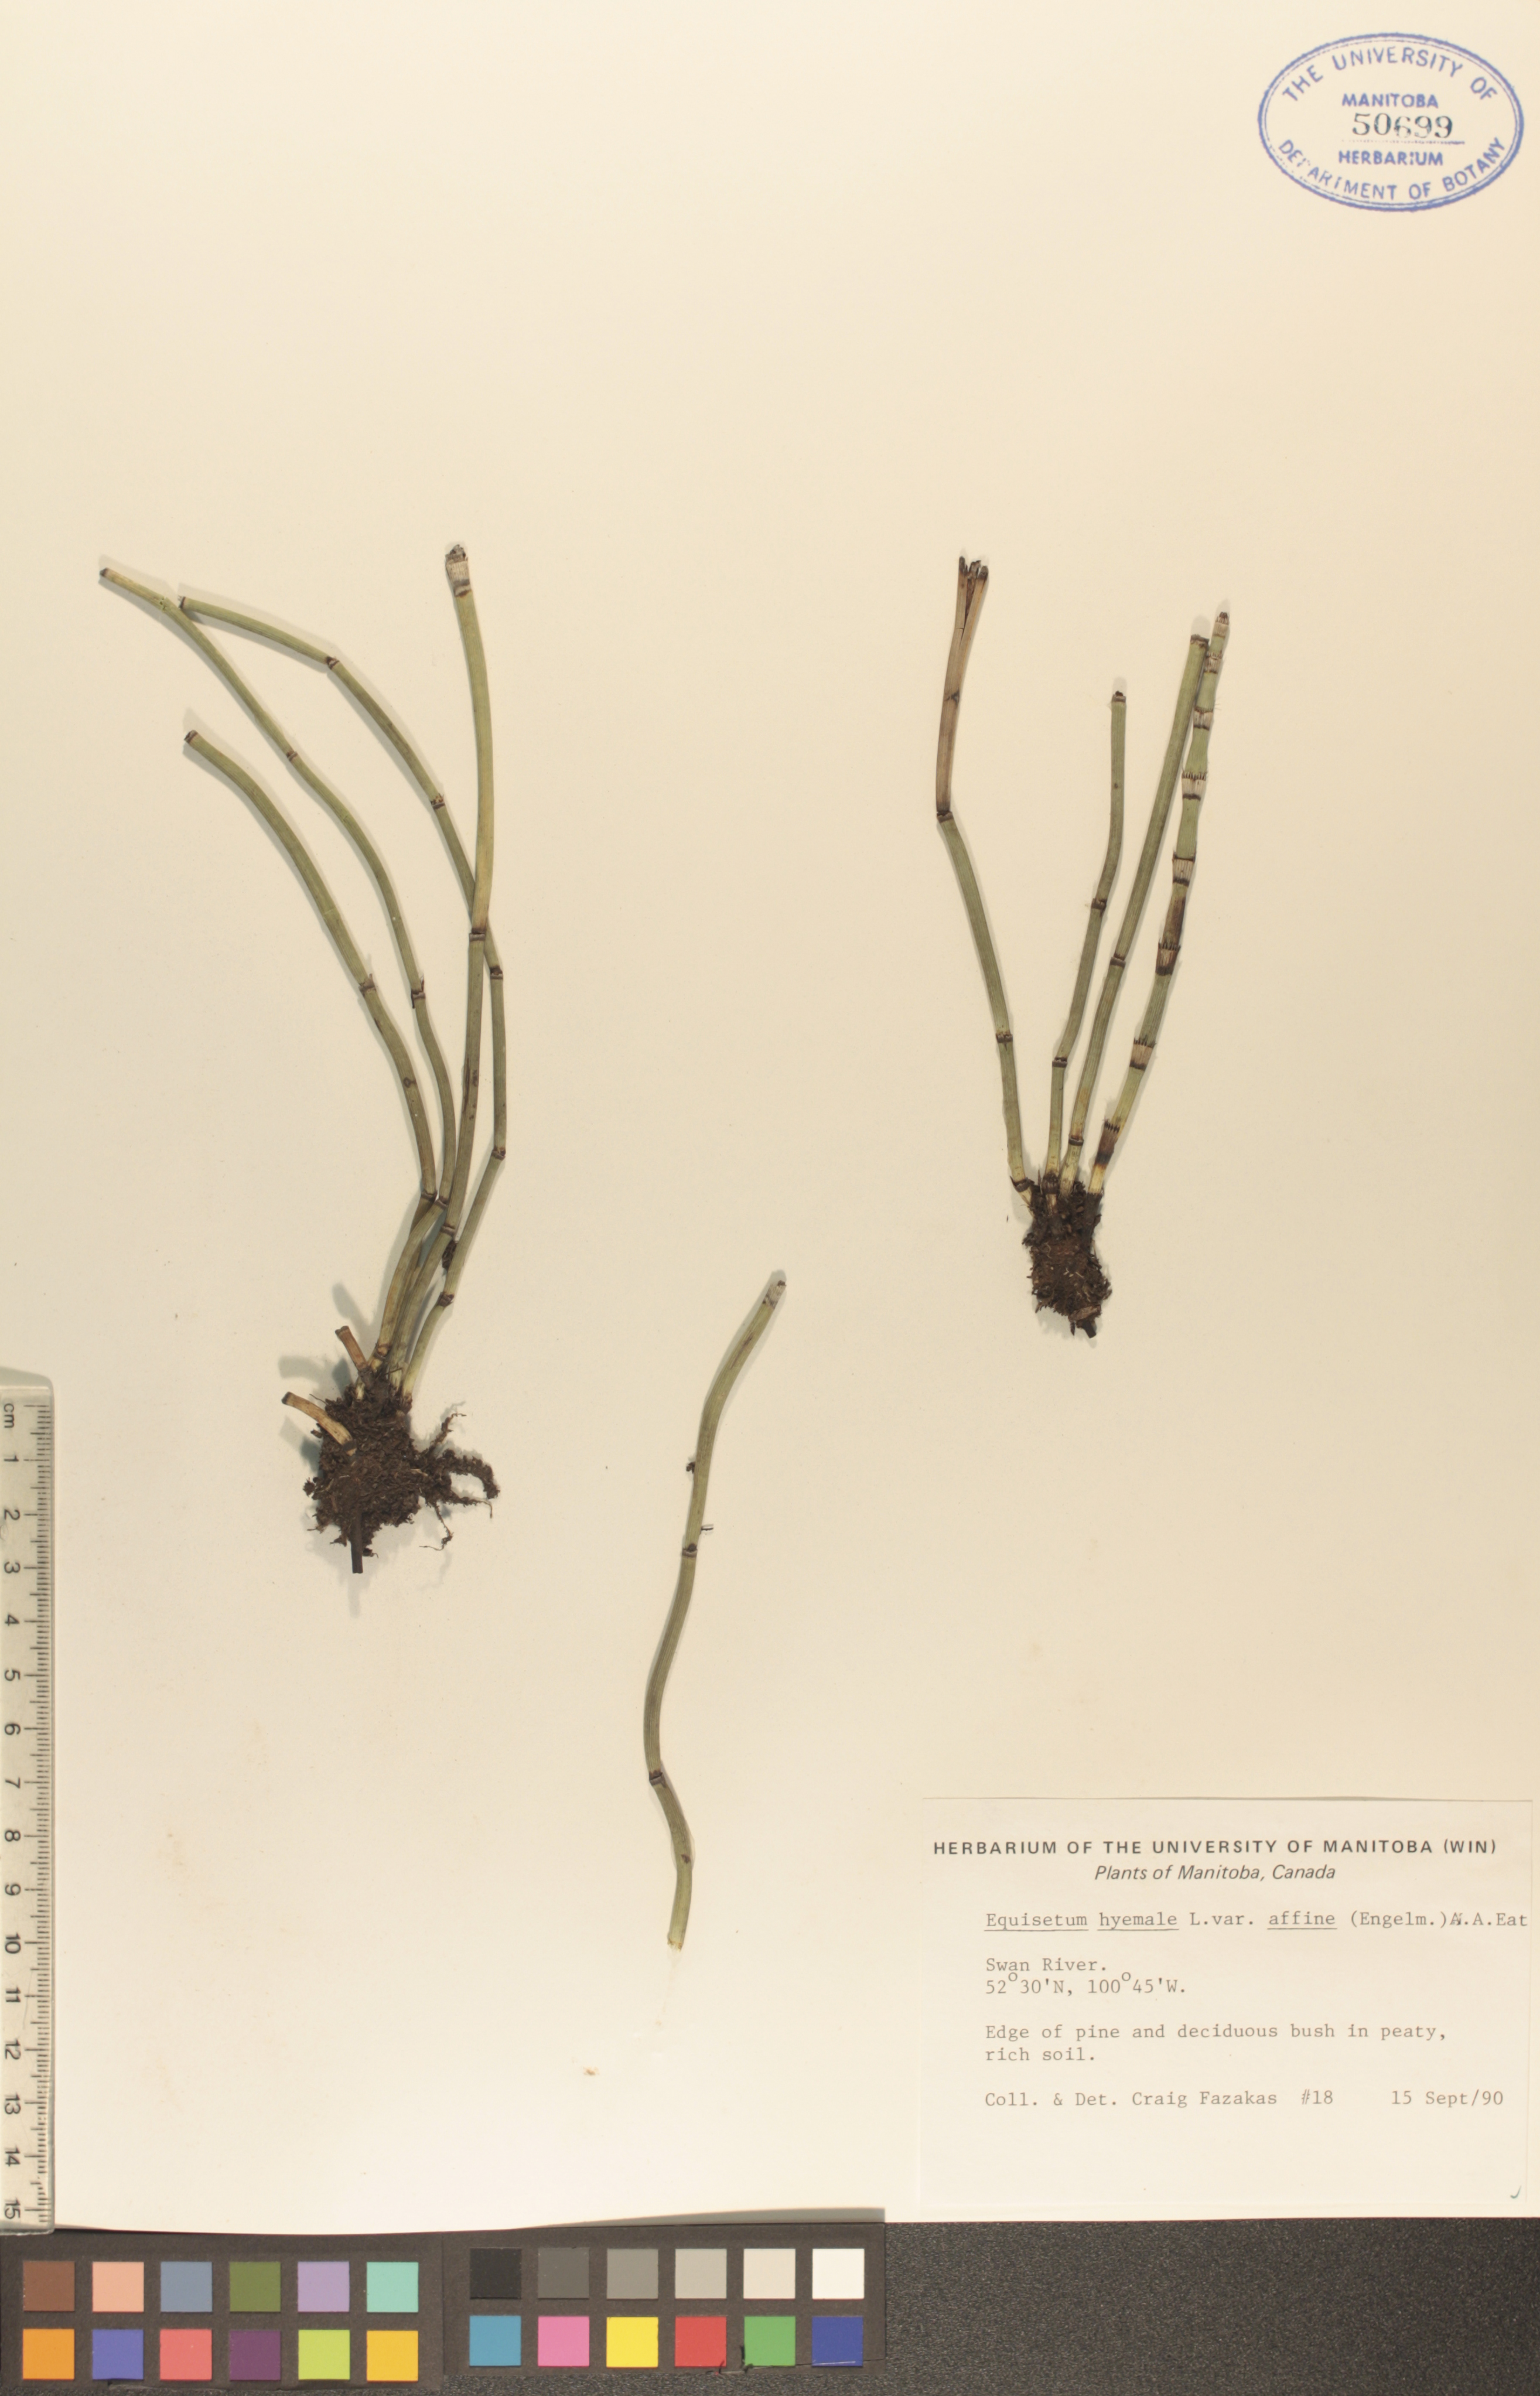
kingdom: Plantae
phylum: Tracheophyta
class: Polypodiopsida
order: Equisetales
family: Equisetaceae
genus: Equisetum
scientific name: Equisetum hyemale
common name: Rough horsetail
